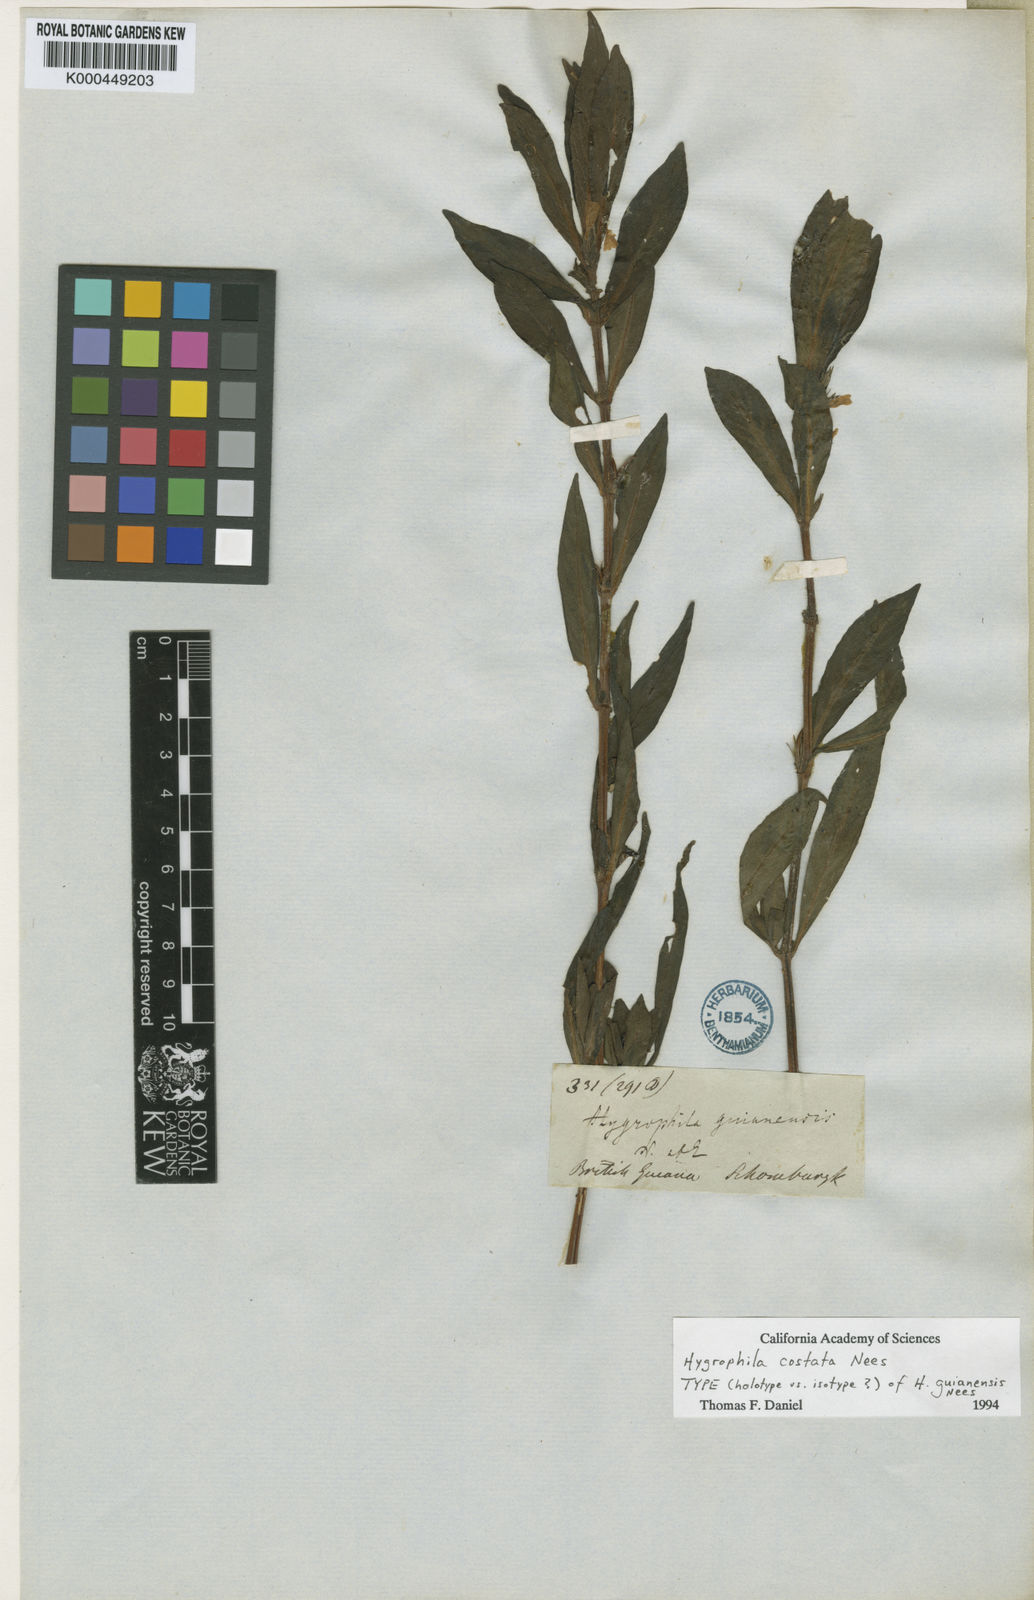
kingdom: Plantae
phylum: Tracheophyta
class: Magnoliopsida
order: Lamiales
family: Acanthaceae
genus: Hygrophila
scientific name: Hygrophila costata
